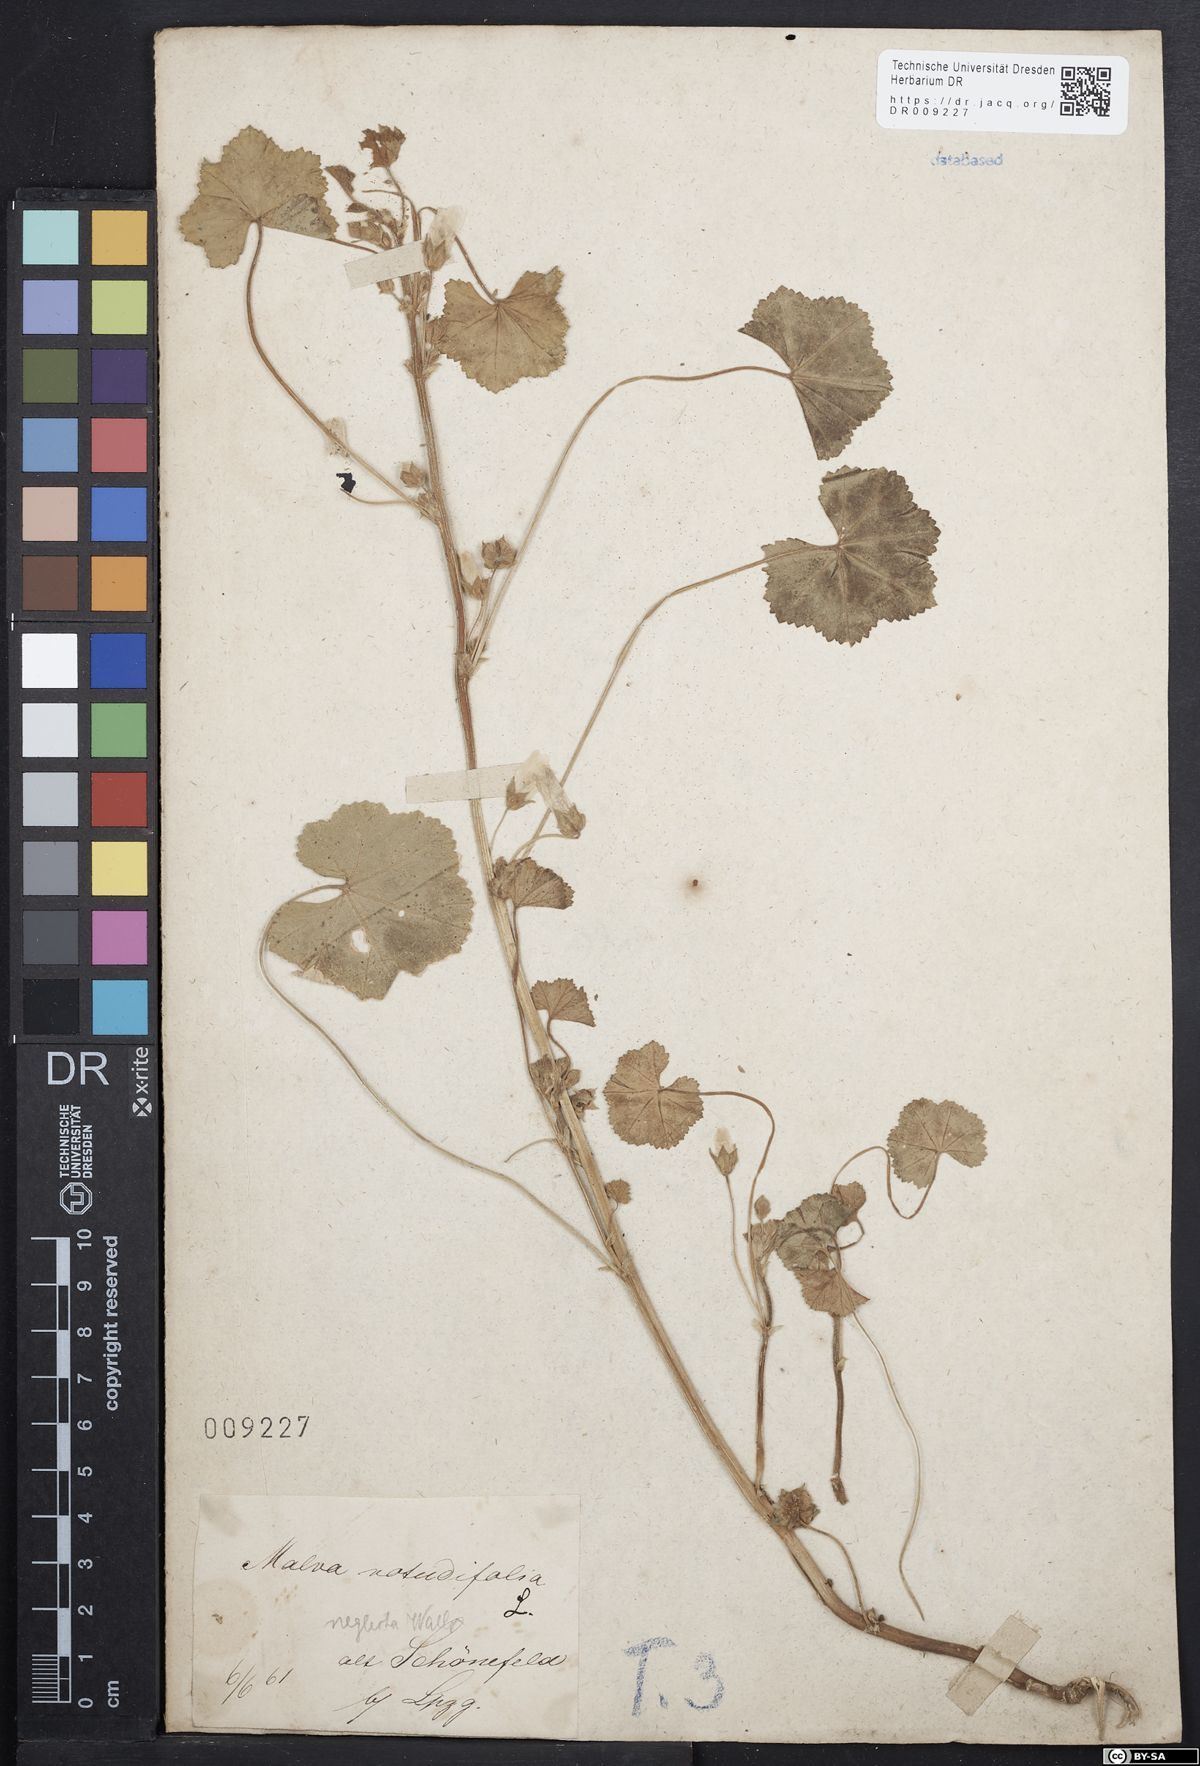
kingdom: Plantae
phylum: Tracheophyta
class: Magnoliopsida
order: Malvales
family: Malvaceae
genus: Malva
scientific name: Malva neglecta
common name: Common mallow
